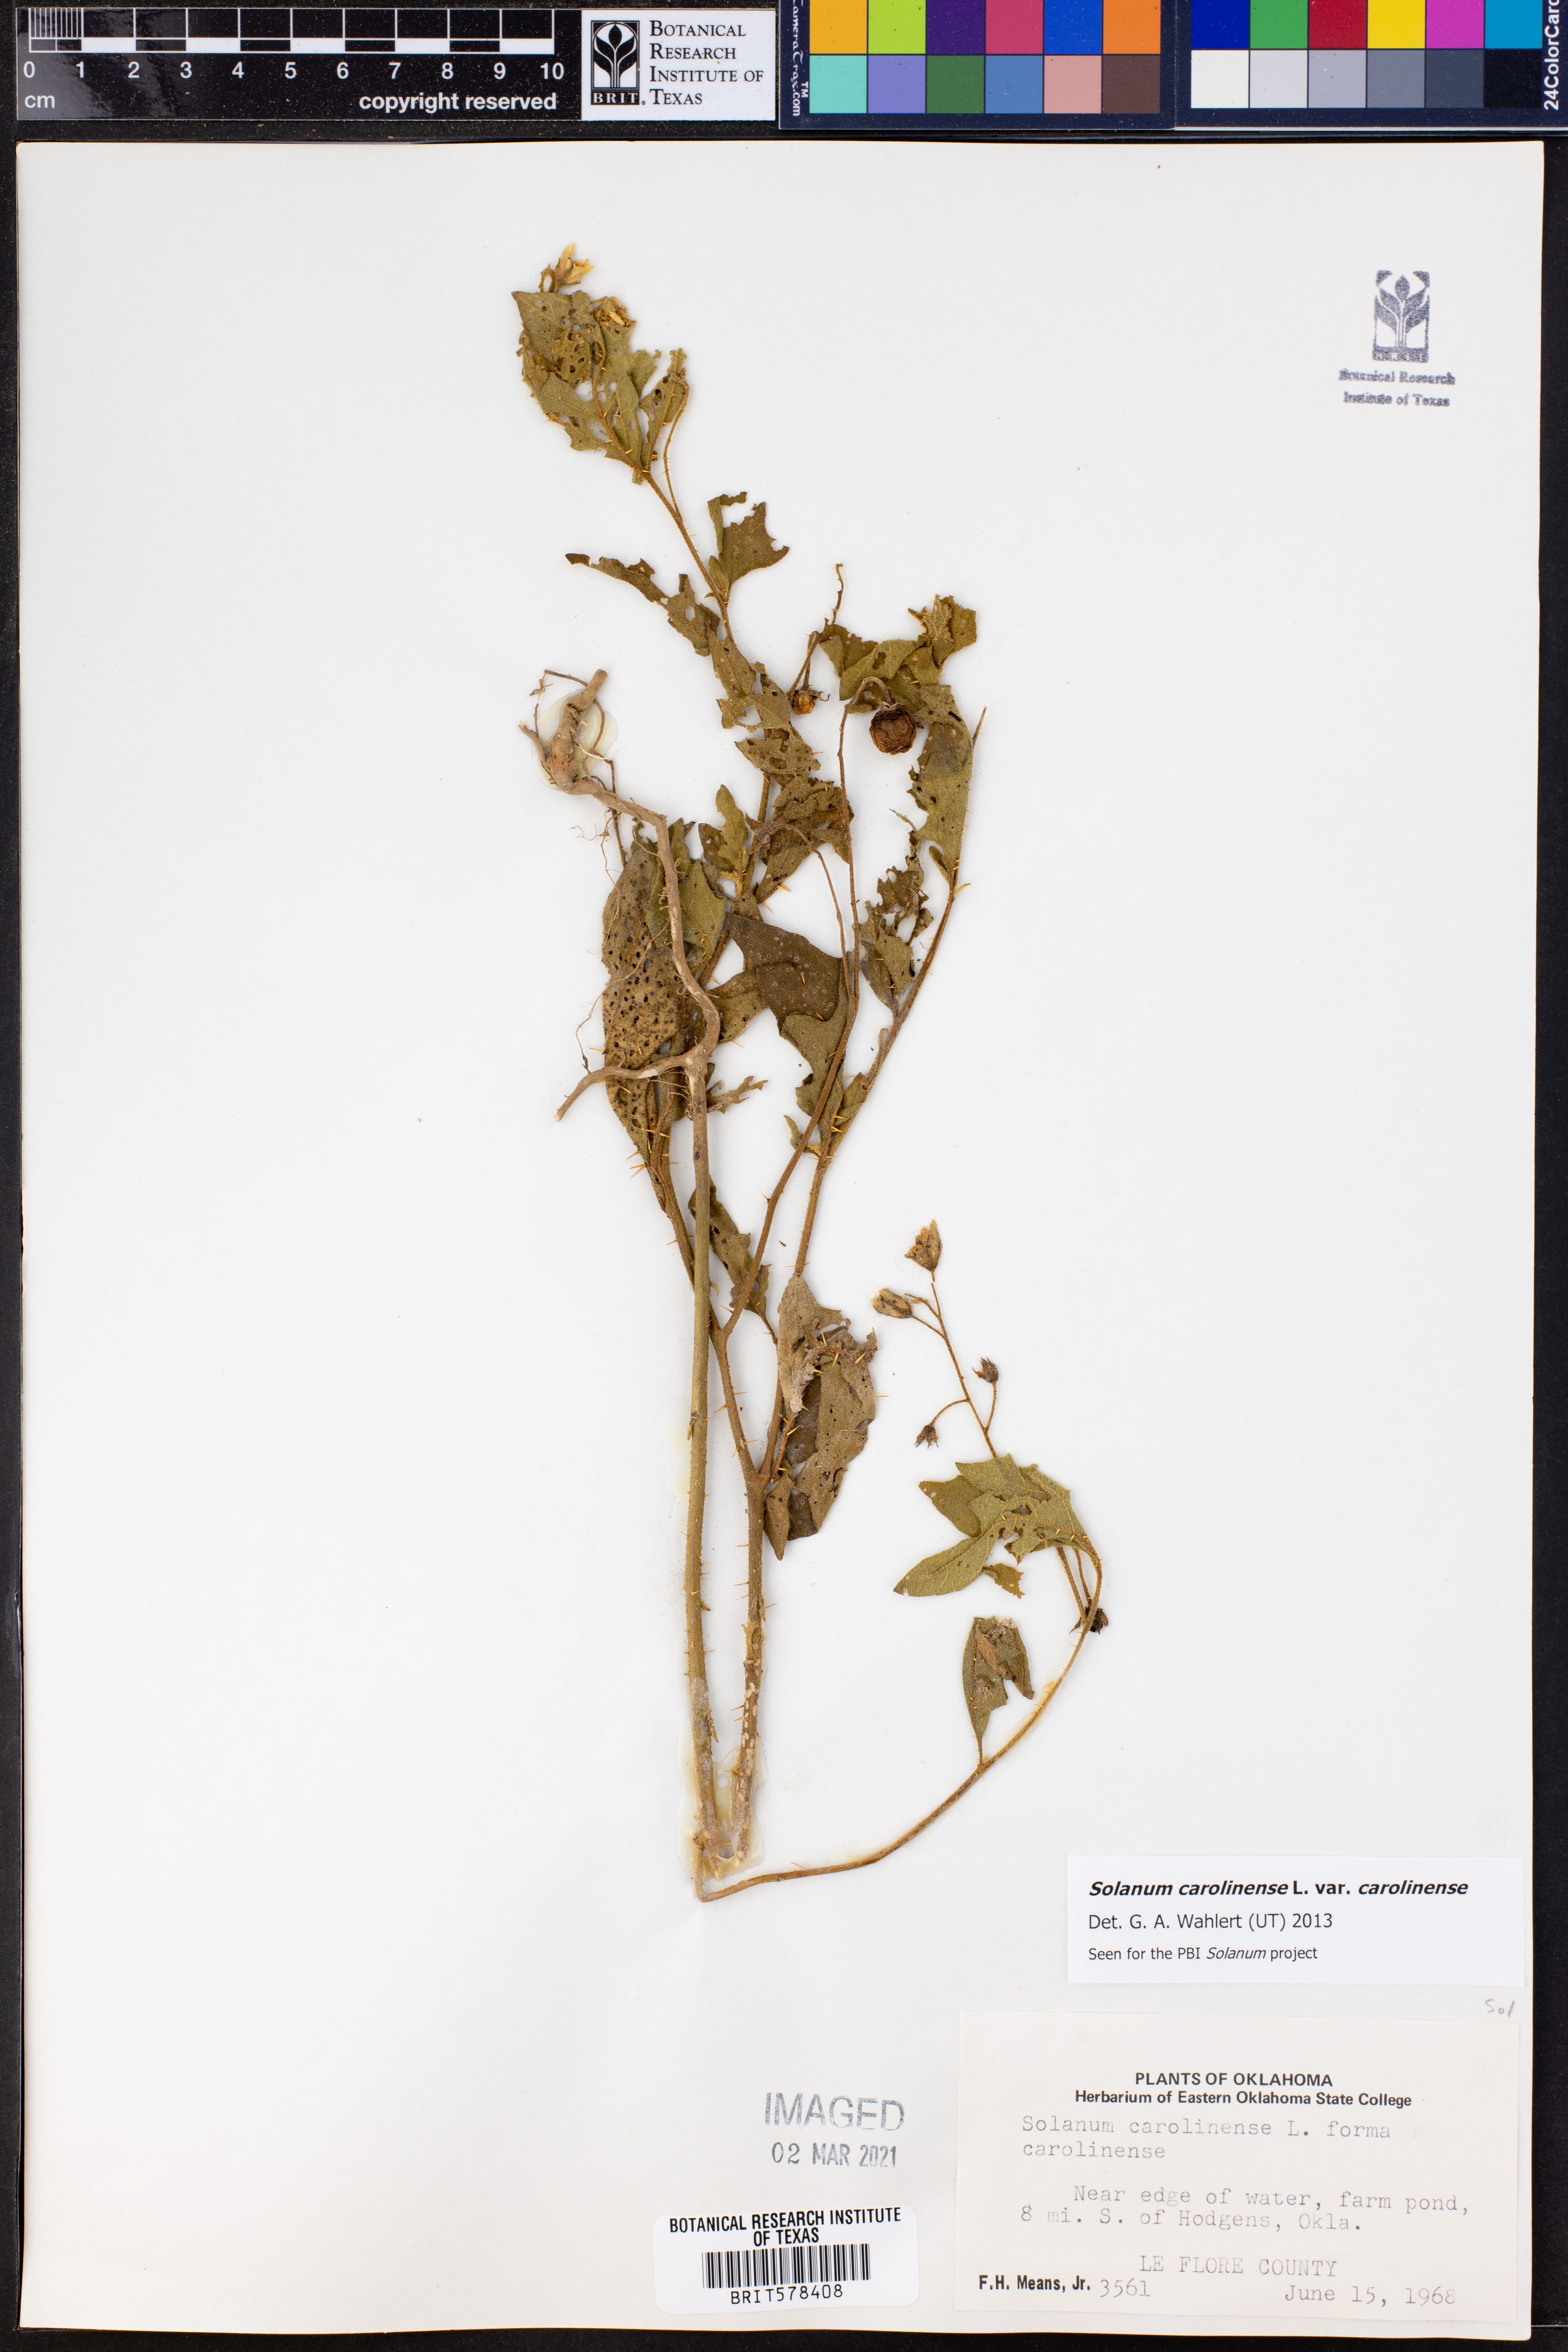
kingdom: Plantae
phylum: Tracheophyta
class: Magnoliopsida
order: Solanales
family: Solanaceae
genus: Solanum
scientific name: Solanum carolinense
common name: Horse-nettle
